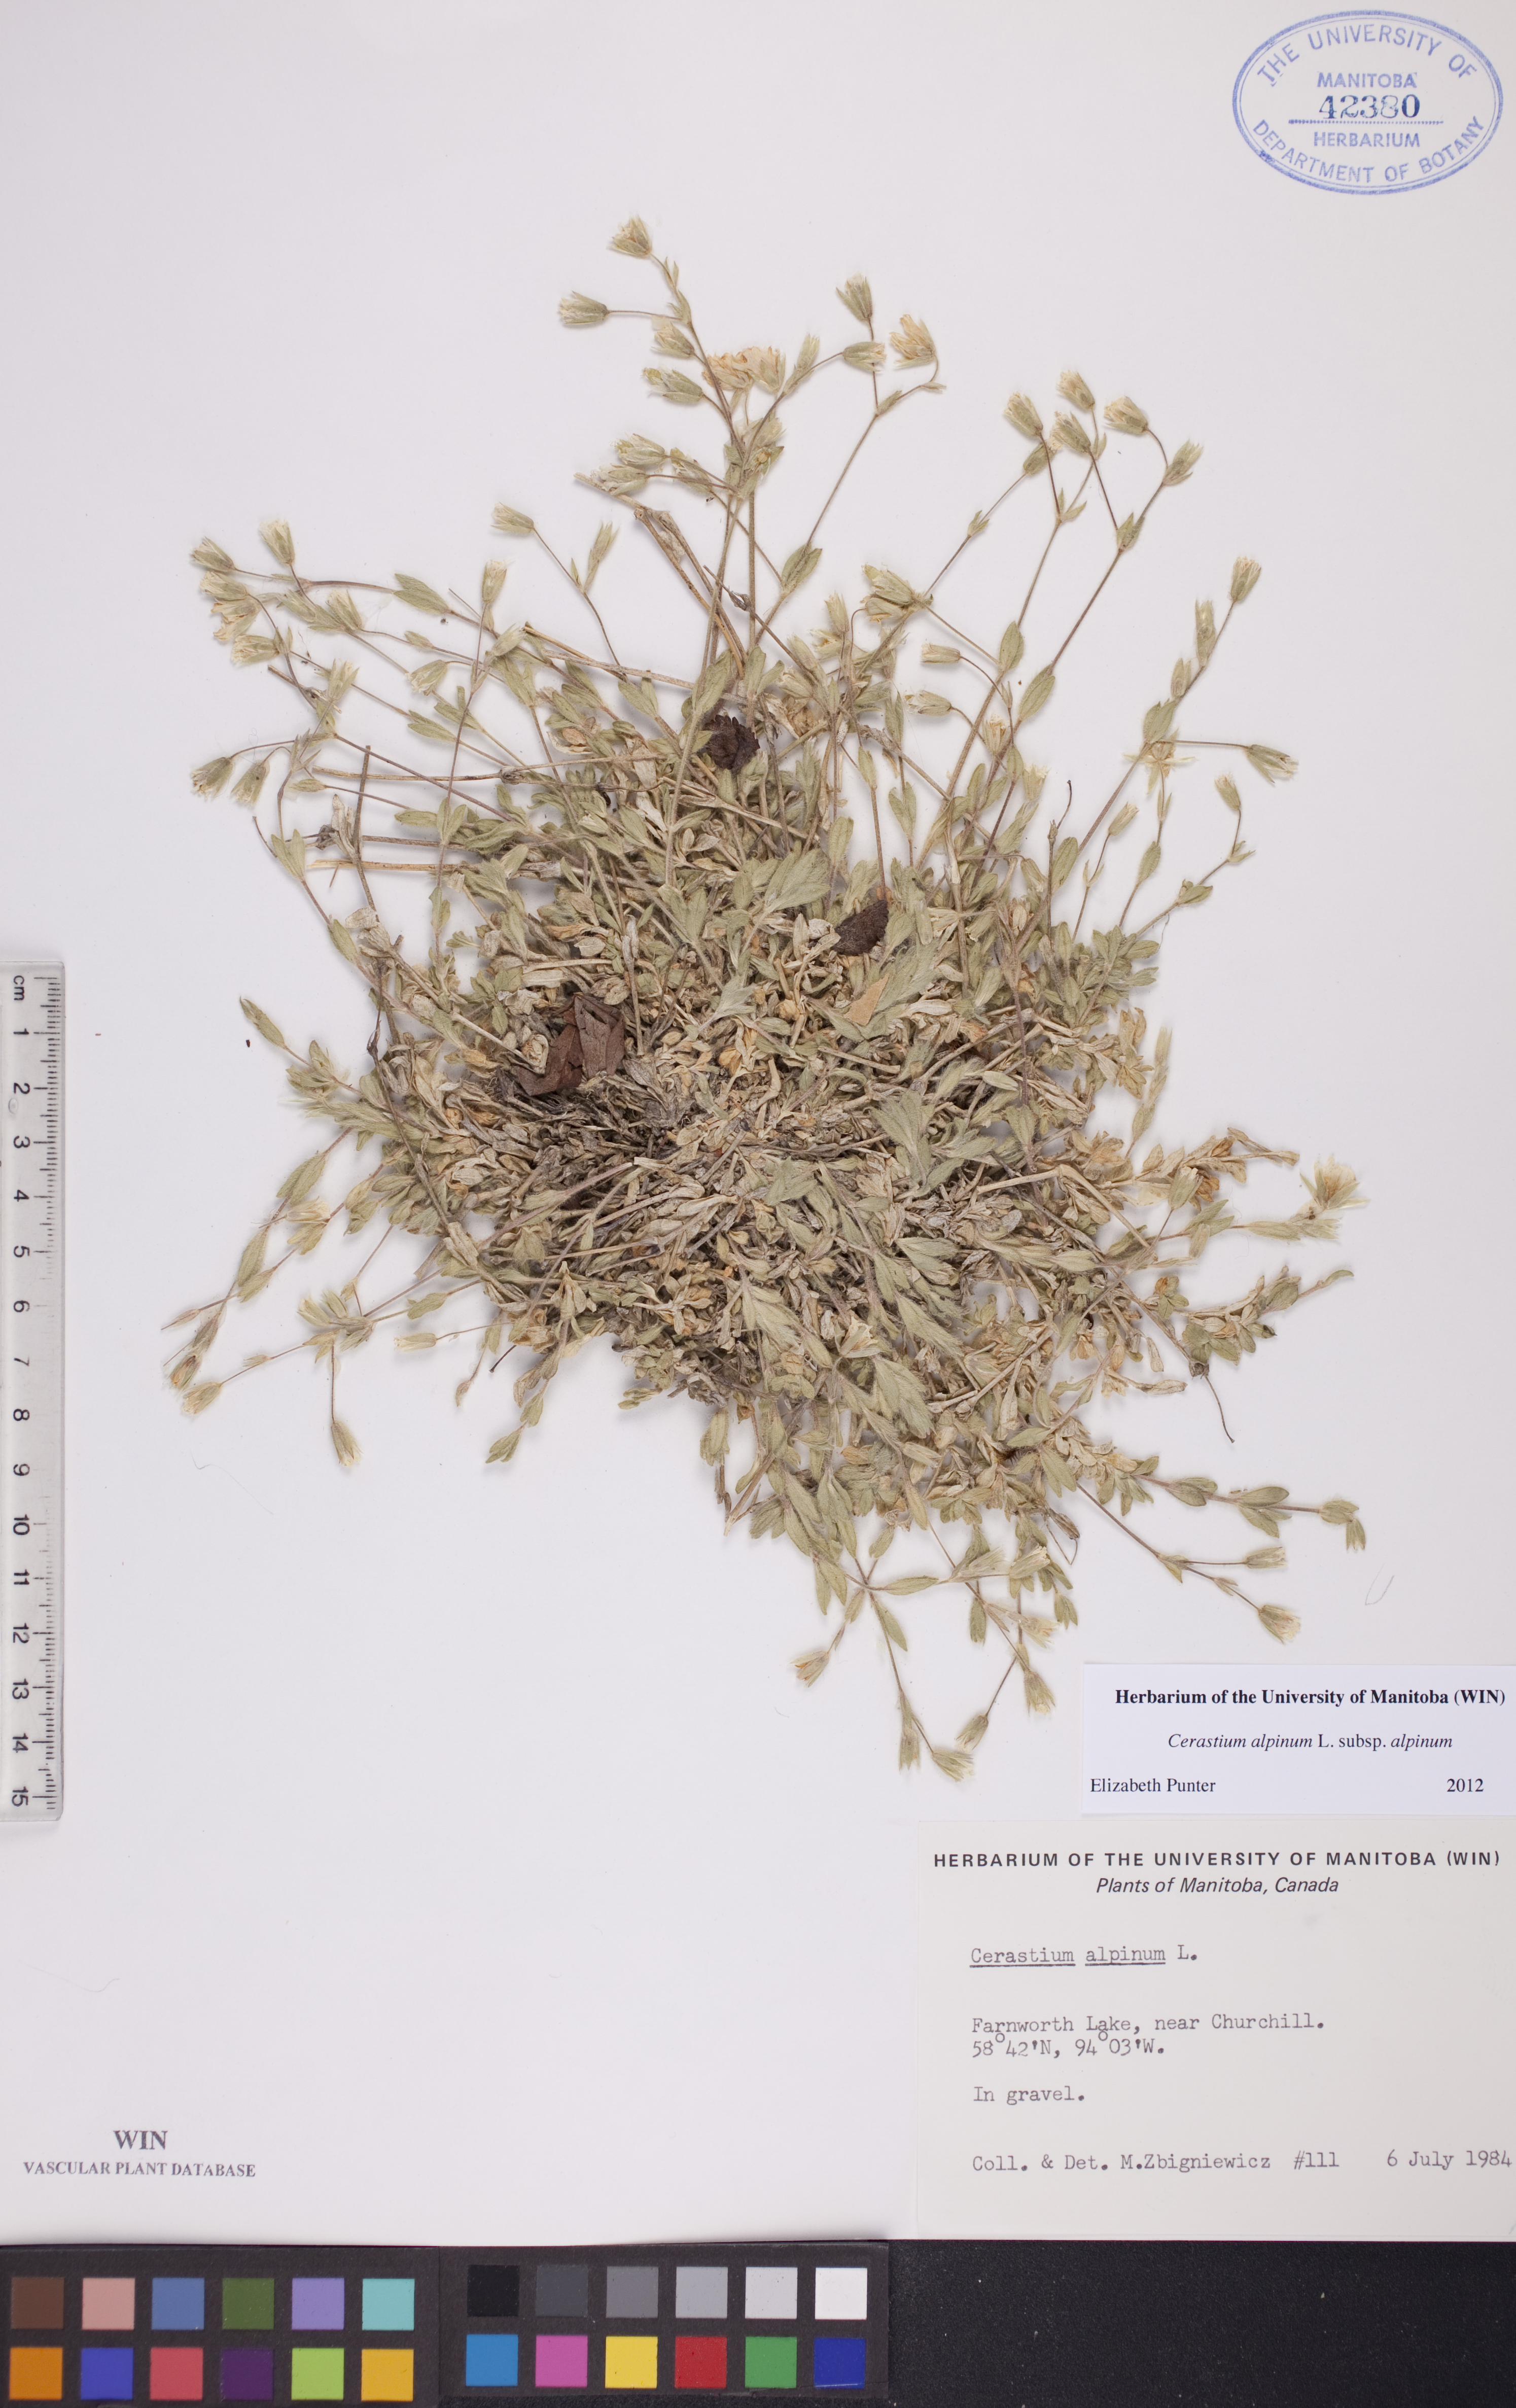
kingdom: Plantae
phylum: Tracheophyta
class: Magnoliopsida
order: Caryophyllales
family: Caryophyllaceae
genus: Cerastium
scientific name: Cerastium alpinum
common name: Alpine mouse-ear
